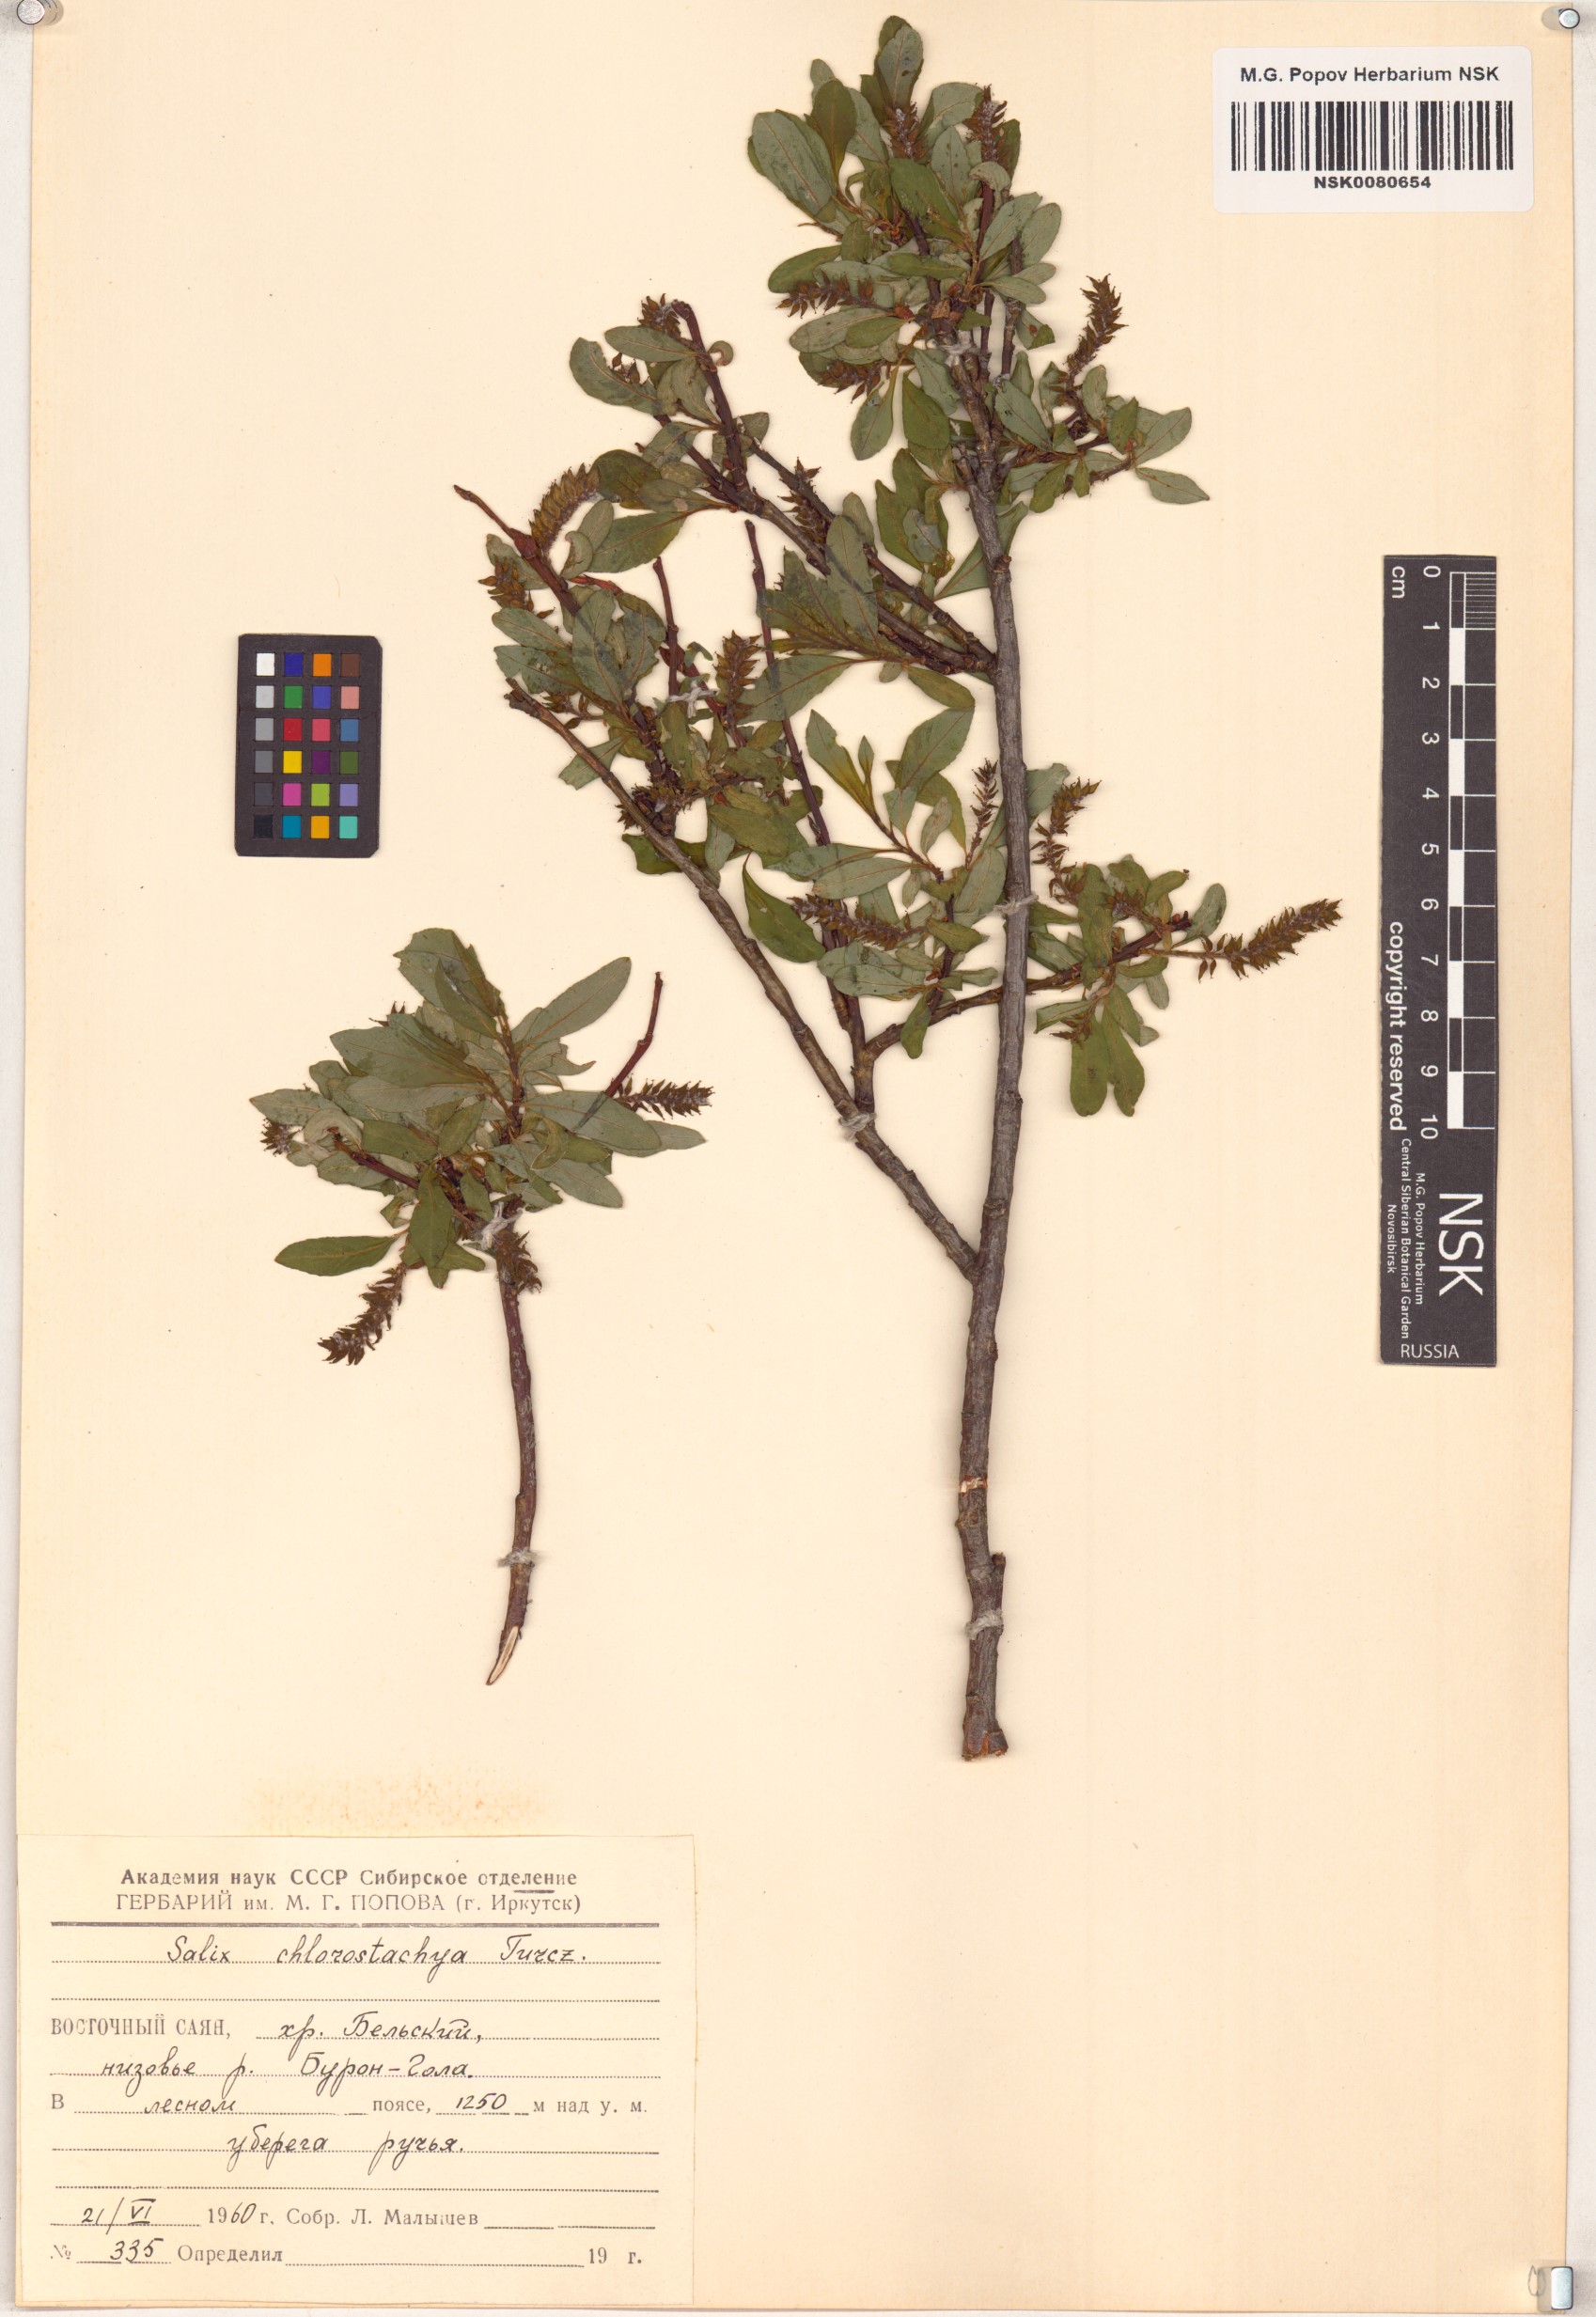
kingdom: Plantae
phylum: Tracheophyta
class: Magnoliopsida
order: Malpighiales
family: Salicaceae
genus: Salix
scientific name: Salix rhamnifolia
